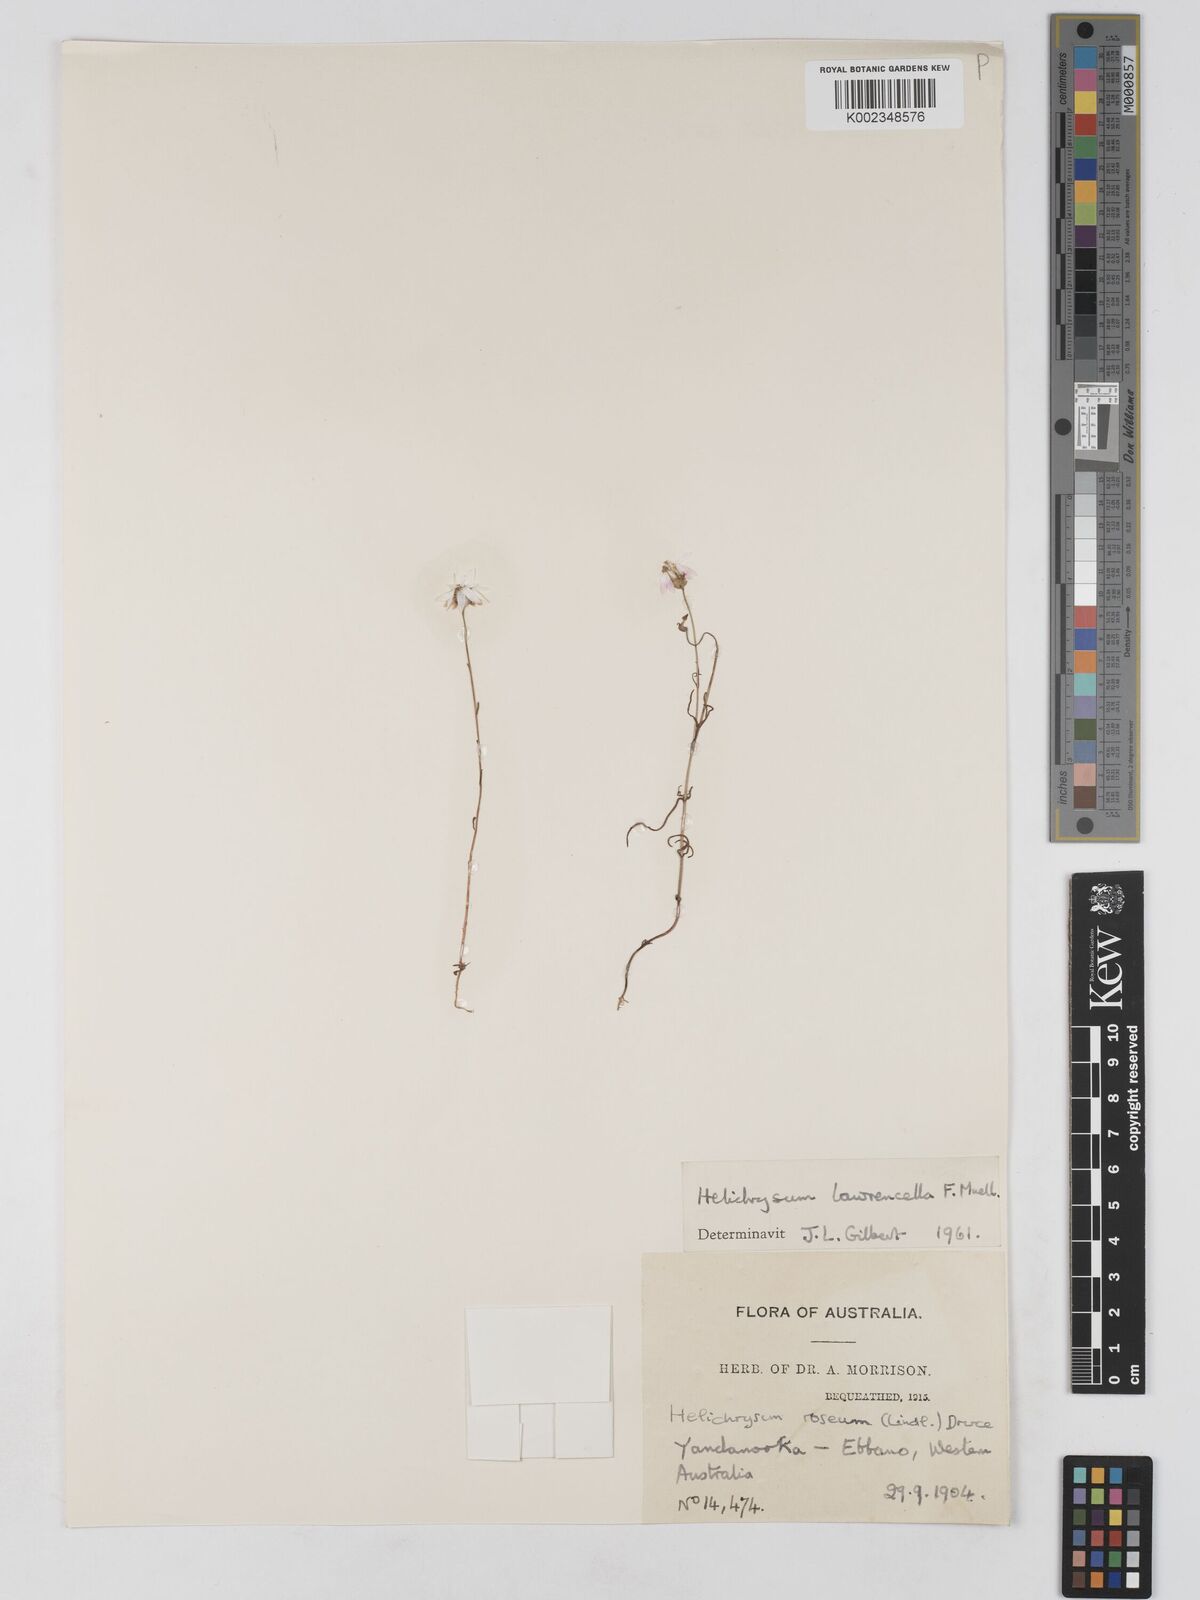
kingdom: Plantae
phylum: Tracheophyta
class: Magnoliopsida
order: Asterales
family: Asteraceae
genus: Lawrencella
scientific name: Lawrencella rosea
